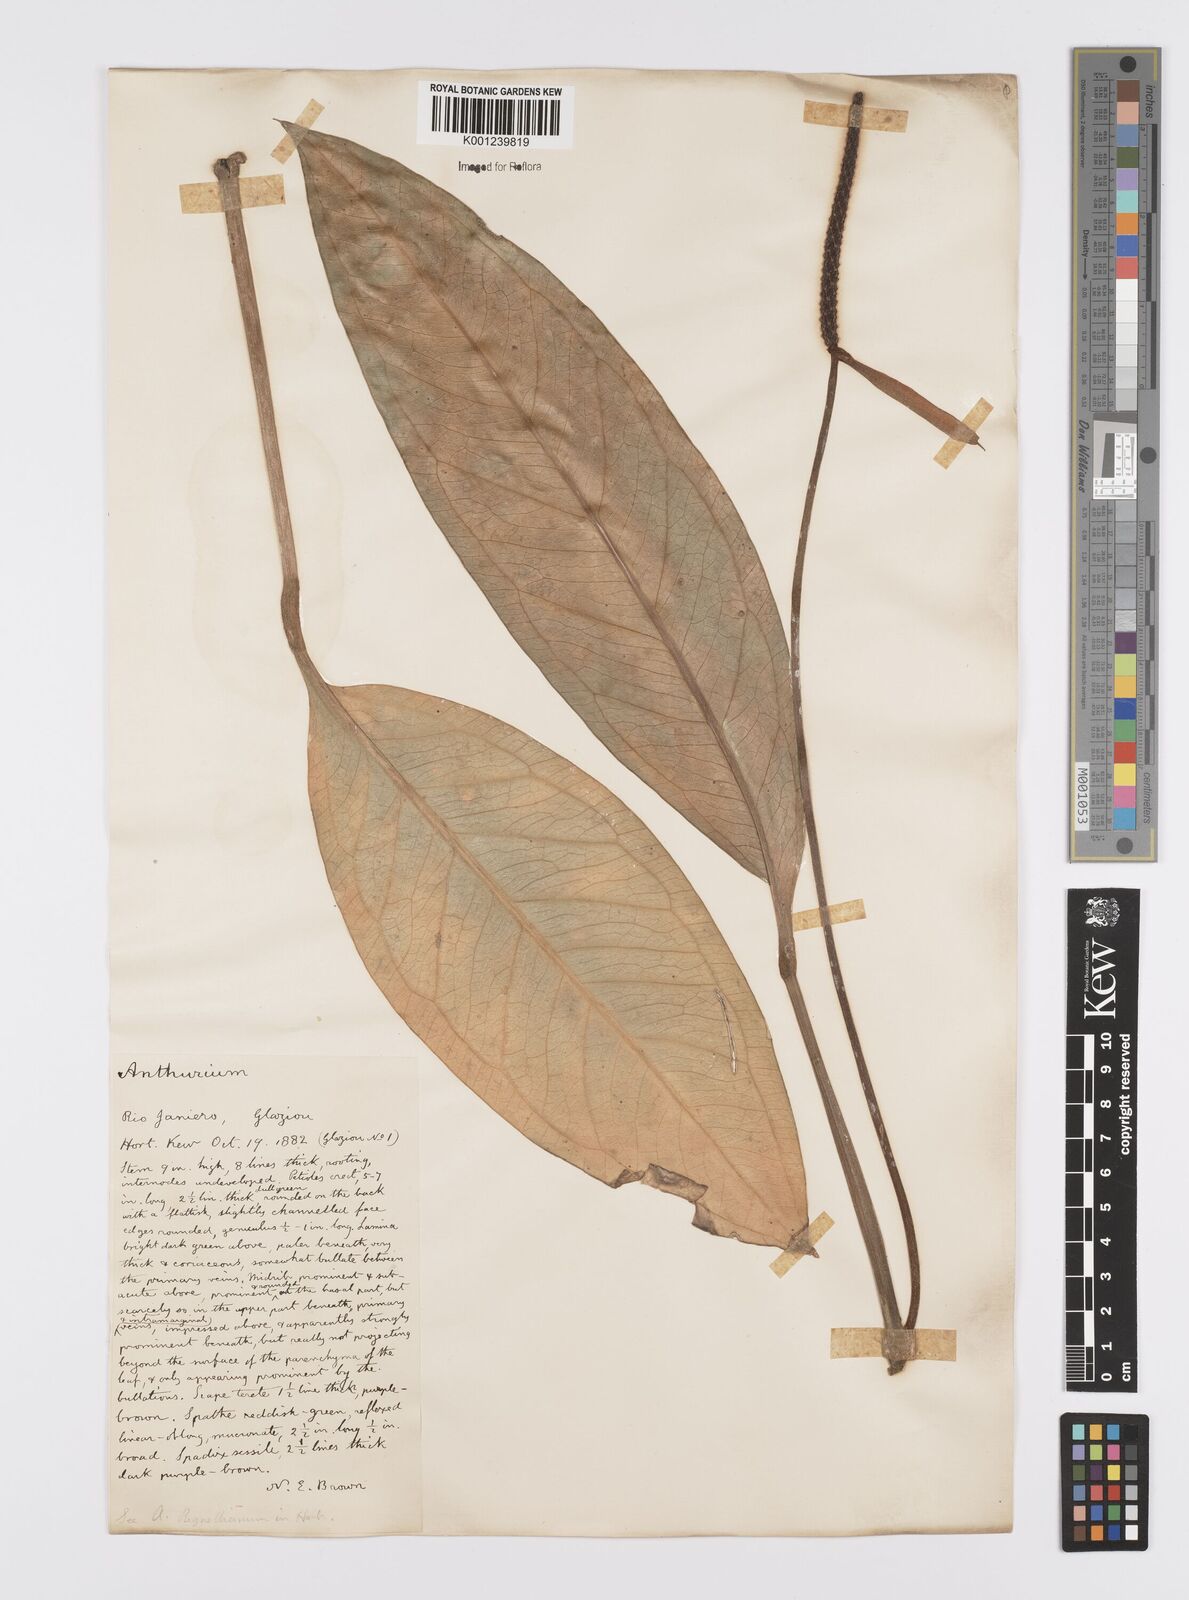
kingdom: Plantae
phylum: Tracheophyta
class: Liliopsida
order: Alismatales
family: Araceae
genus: Anthurium
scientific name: Anthurium
